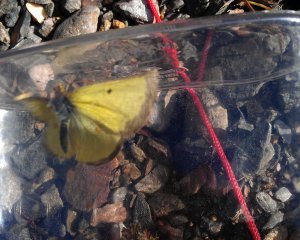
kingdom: Animalia
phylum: Arthropoda
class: Insecta
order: Lepidoptera
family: Pieridae
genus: Colias
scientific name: Colias philodice
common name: Clouded Sulphur
